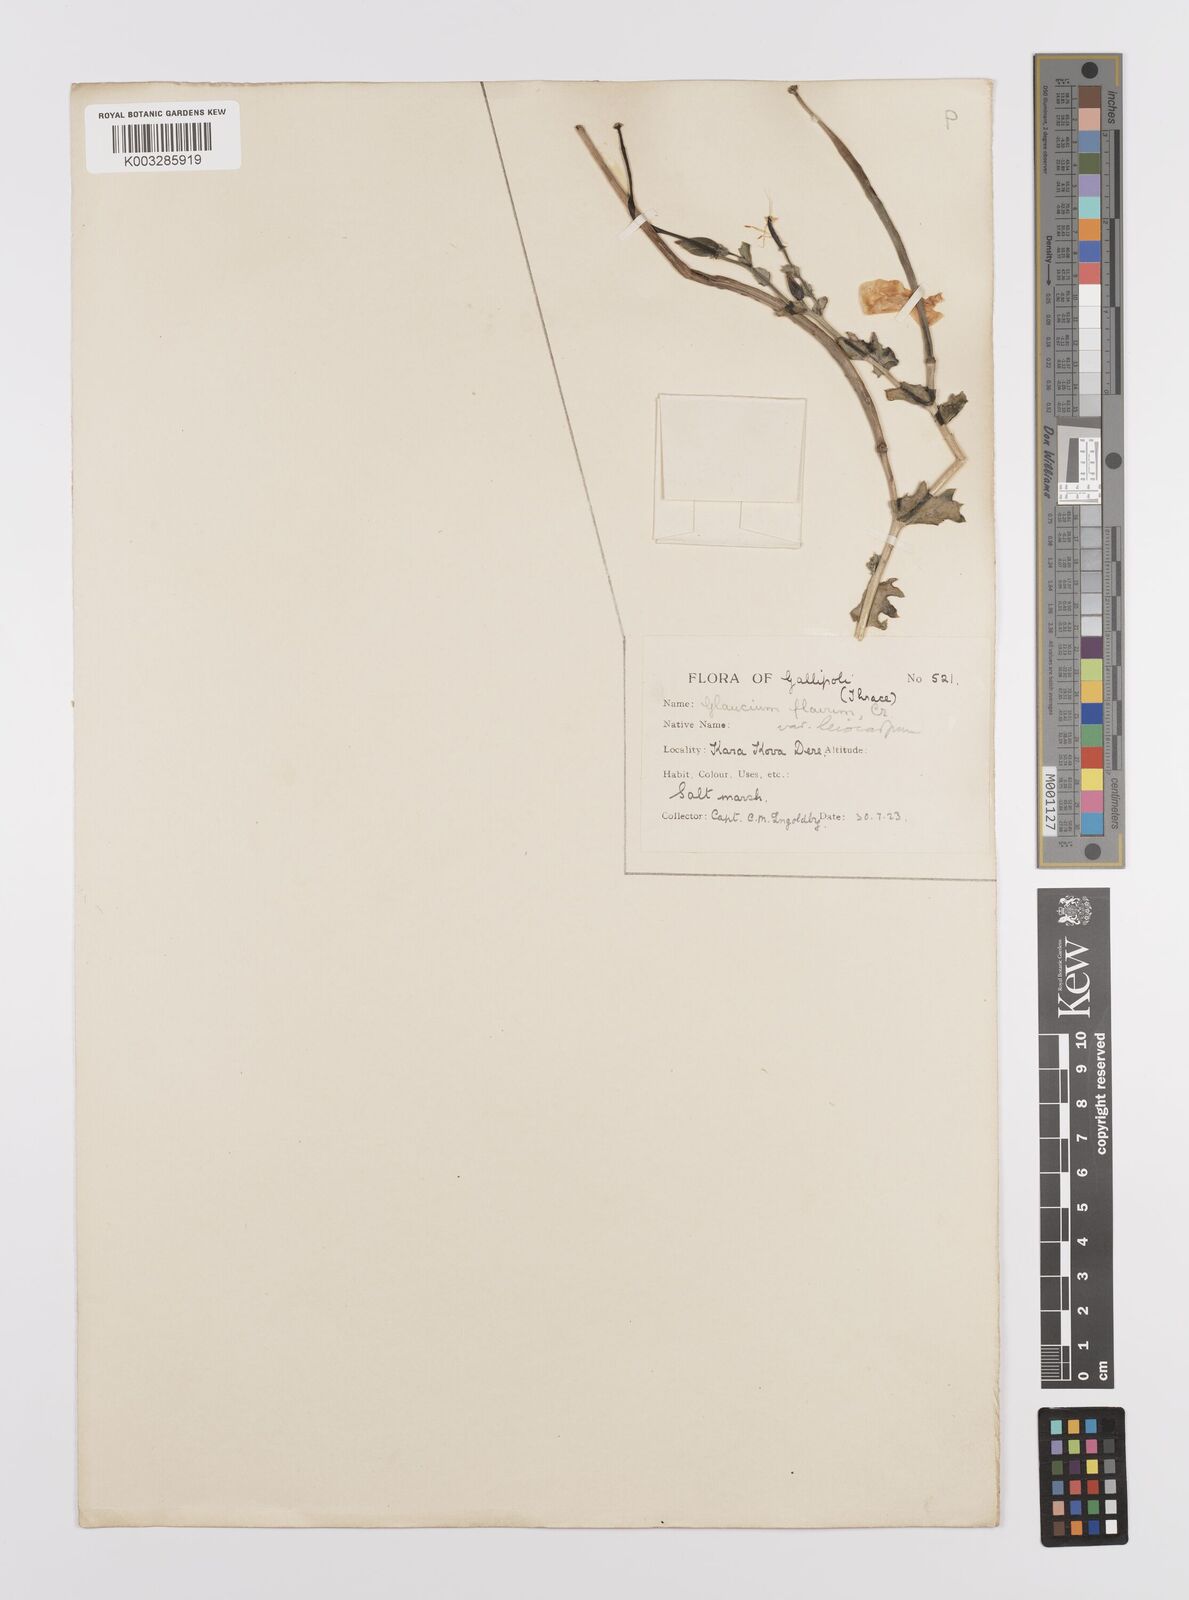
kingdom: Plantae
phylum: Tracheophyta
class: Magnoliopsida
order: Ranunculales
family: Papaveraceae
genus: Glaucium
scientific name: Glaucium flavum
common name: Yellow horned-poppy
